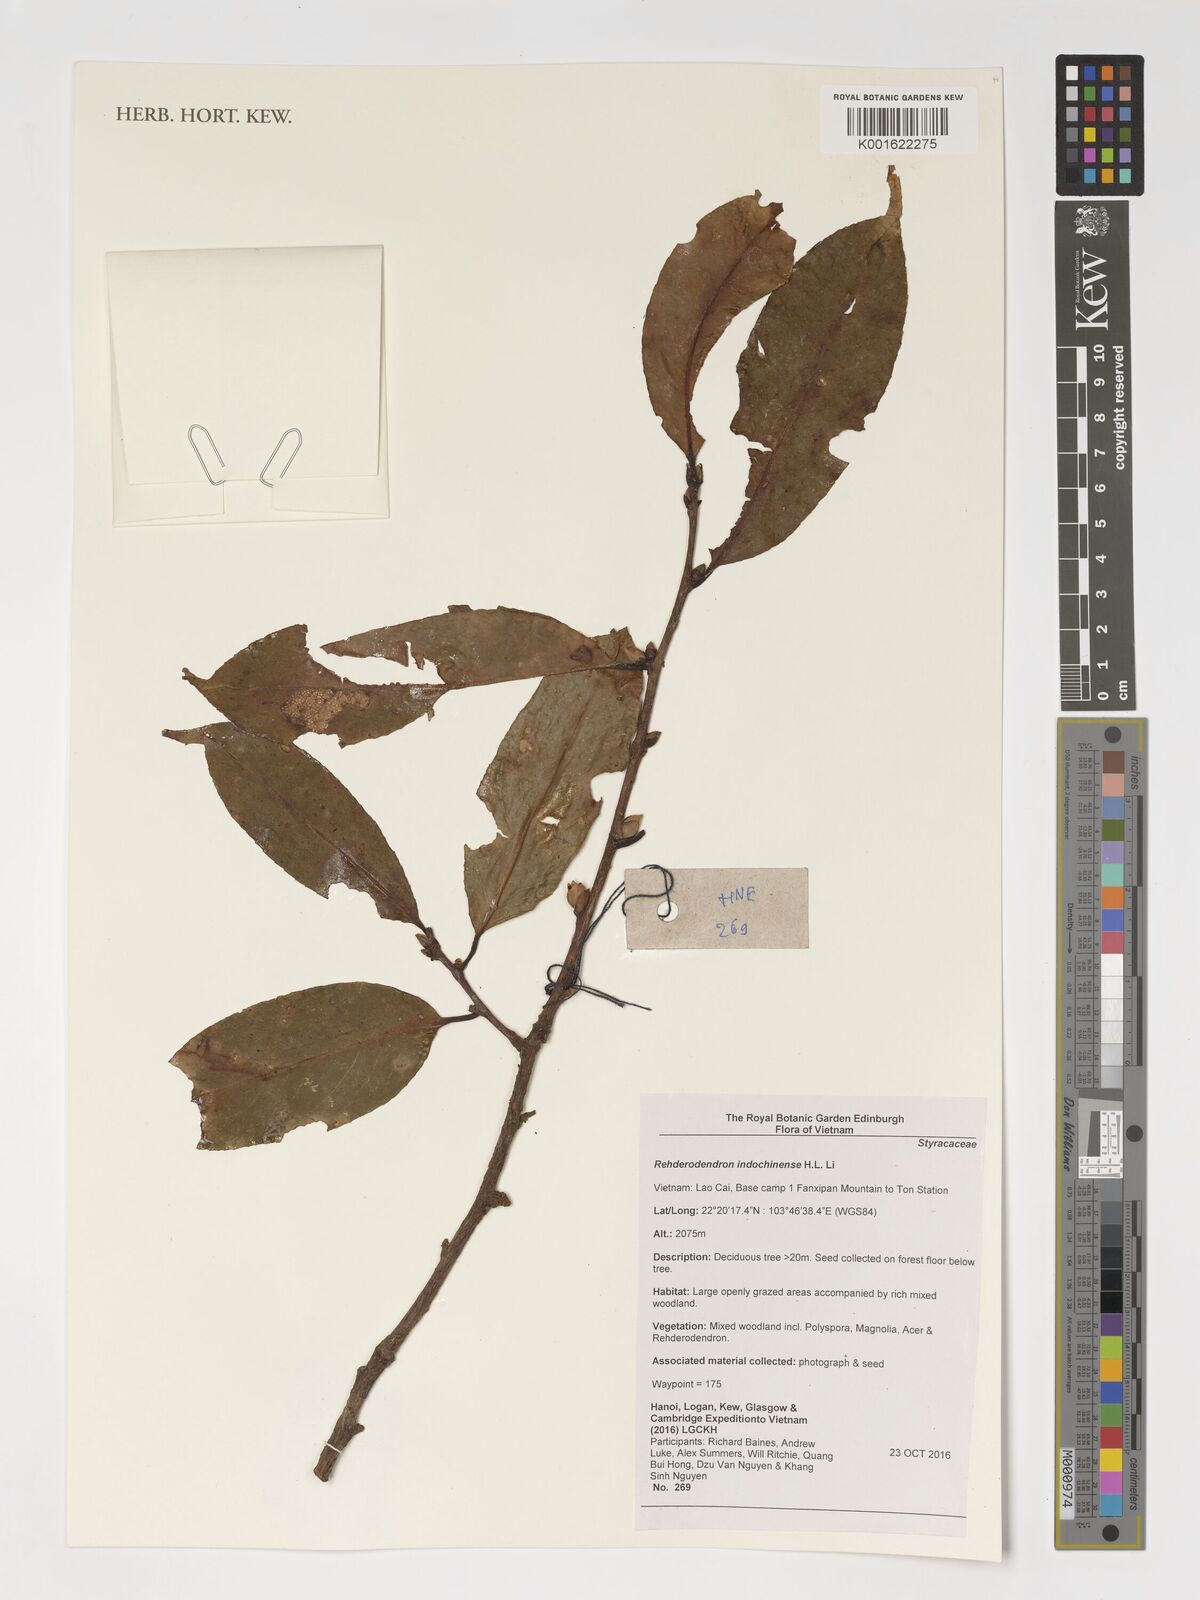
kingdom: Plantae
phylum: Tracheophyta
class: Magnoliopsida
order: Ericales
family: Styracaceae
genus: Rehderodendron
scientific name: Rehderodendron indochinense
